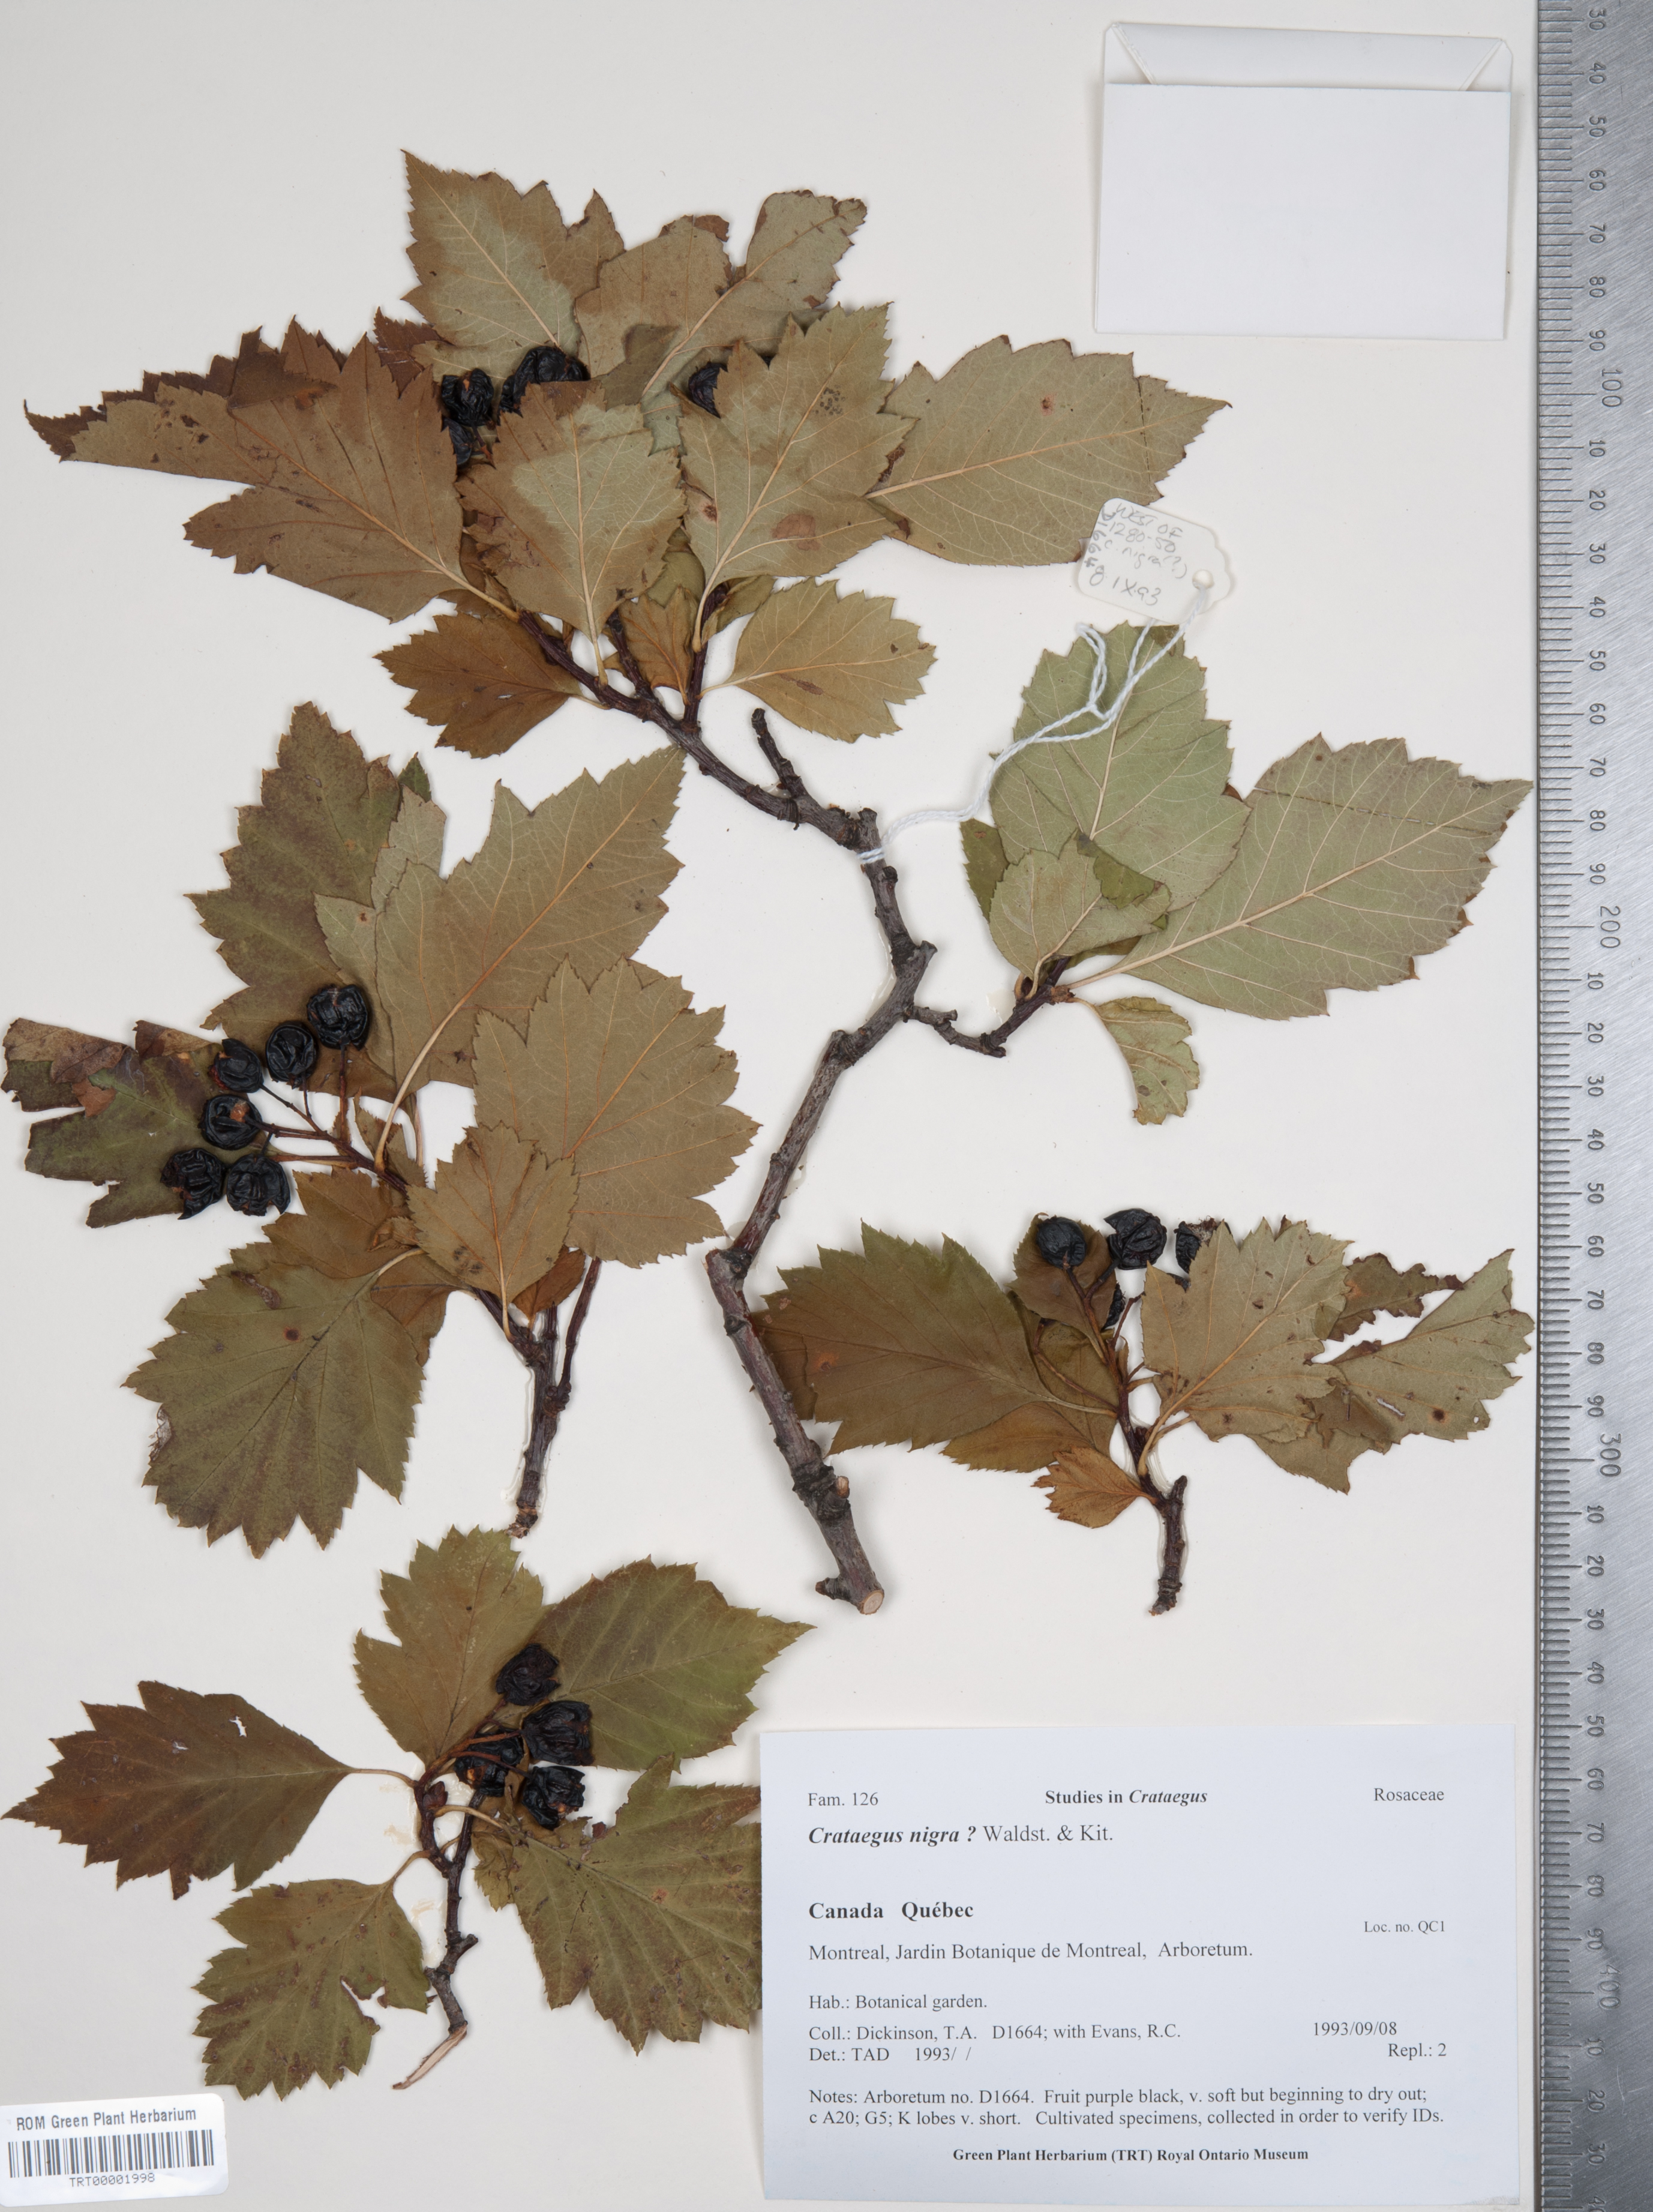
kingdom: Plantae
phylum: Tracheophyta
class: Magnoliopsida
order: Rosales
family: Rosaceae
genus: Crataegus
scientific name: Crataegus chlorosarca
